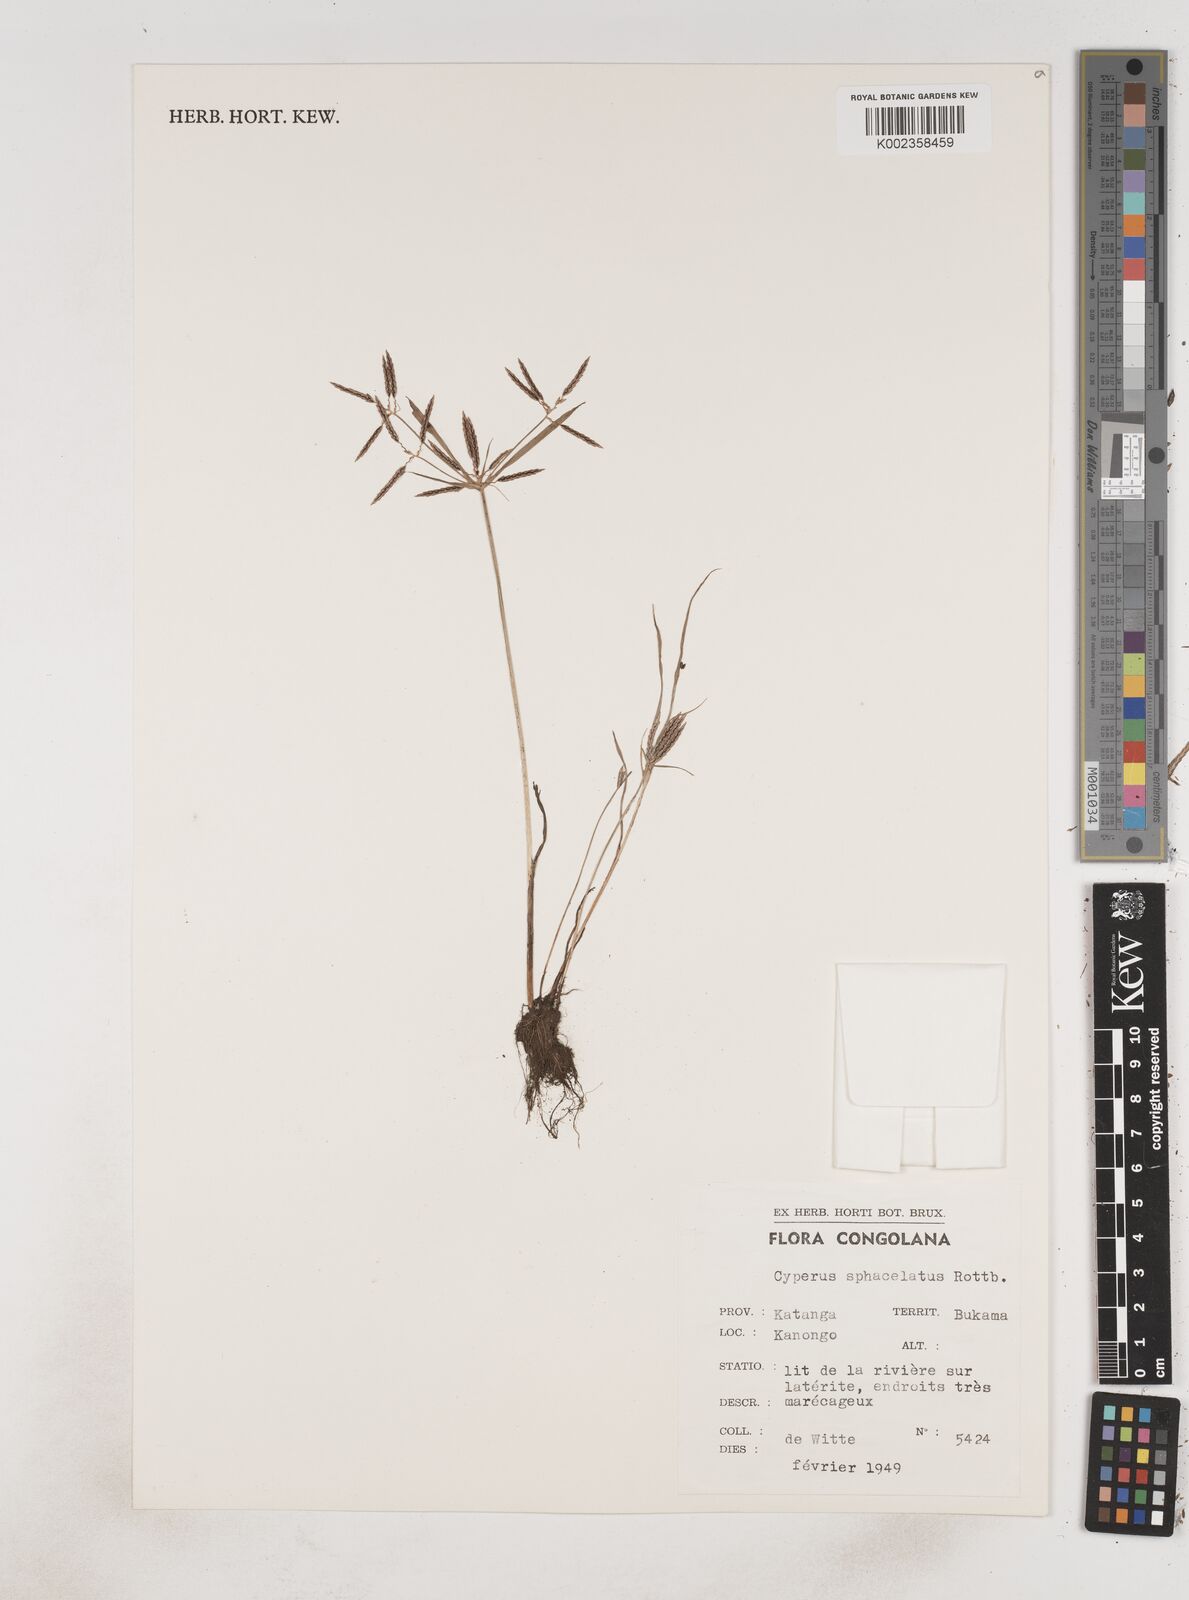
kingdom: Plantae
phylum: Tracheophyta
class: Liliopsida
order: Poales
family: Cyperaceae
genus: Cyperus
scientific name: Cyperus sphacelatus
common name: Roadside flatsedge
